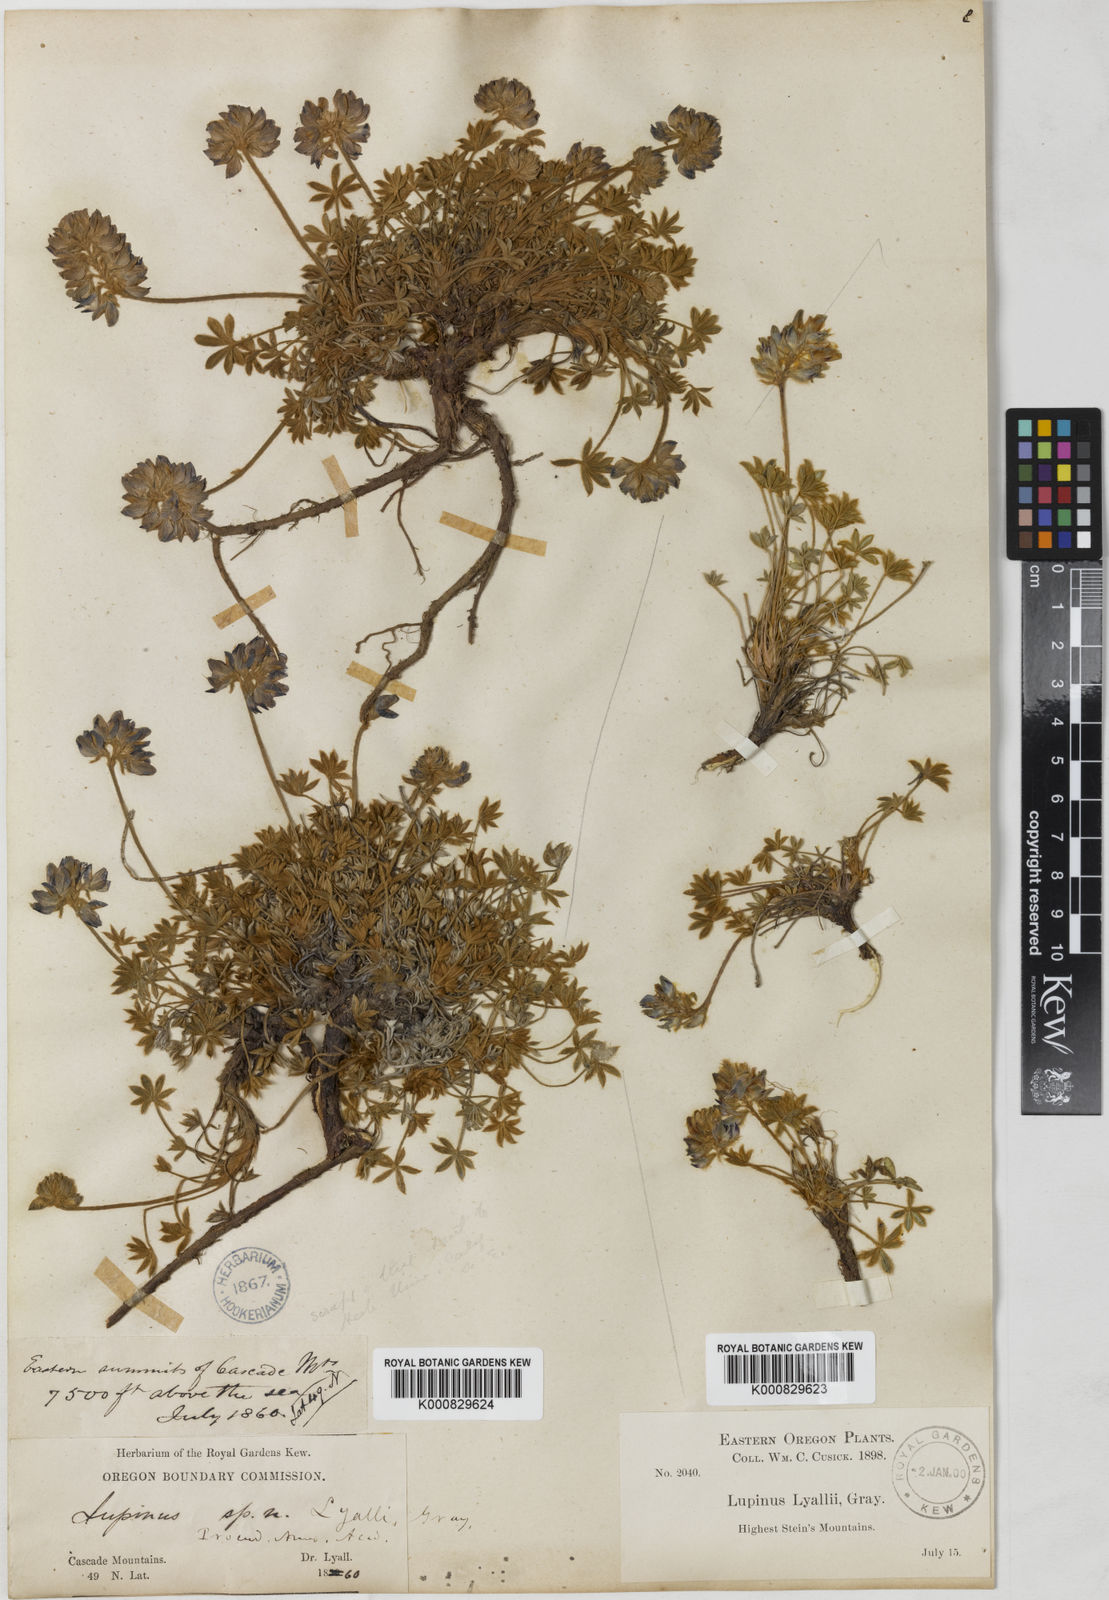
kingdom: Plantae
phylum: Tracheophyta
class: Magnoliopsida
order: Fabales
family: Fabaceae
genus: Lupinus
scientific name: Lupinus lyallii
